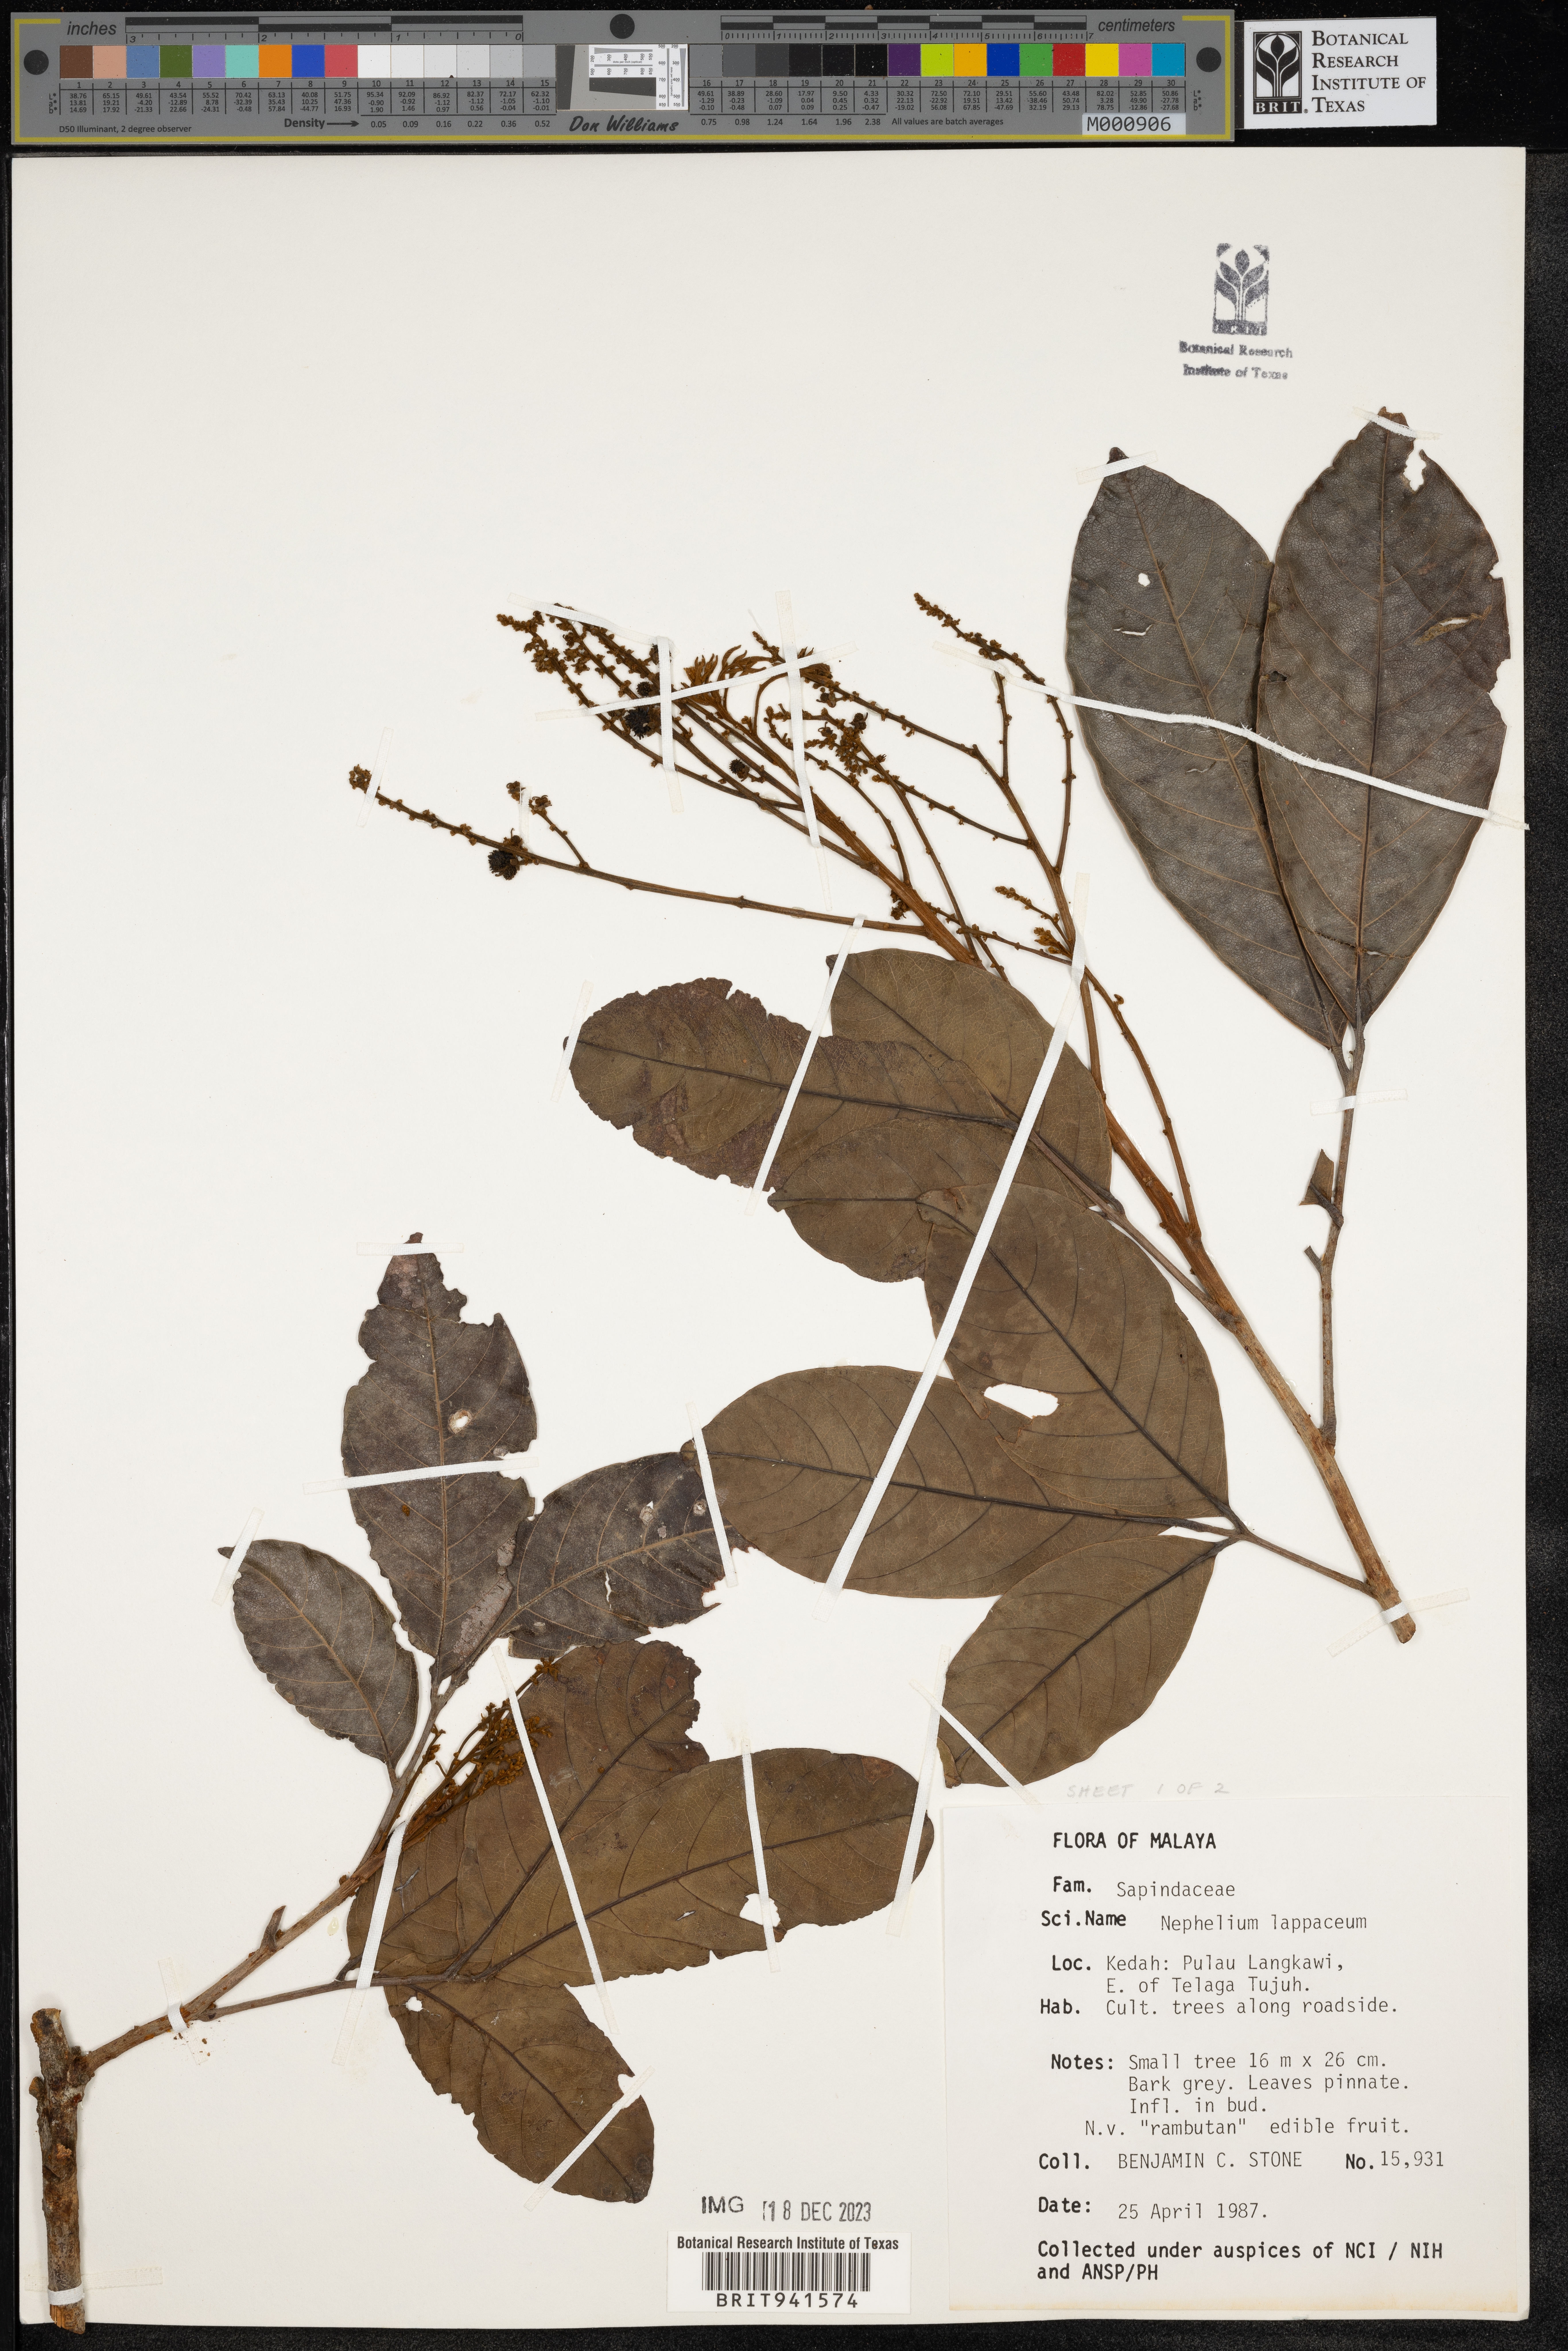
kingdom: Plantae
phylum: Tracheophyta
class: Magnoliopsida
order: Sapindales
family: Sapindaceae
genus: Nephelium
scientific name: Nephelium
